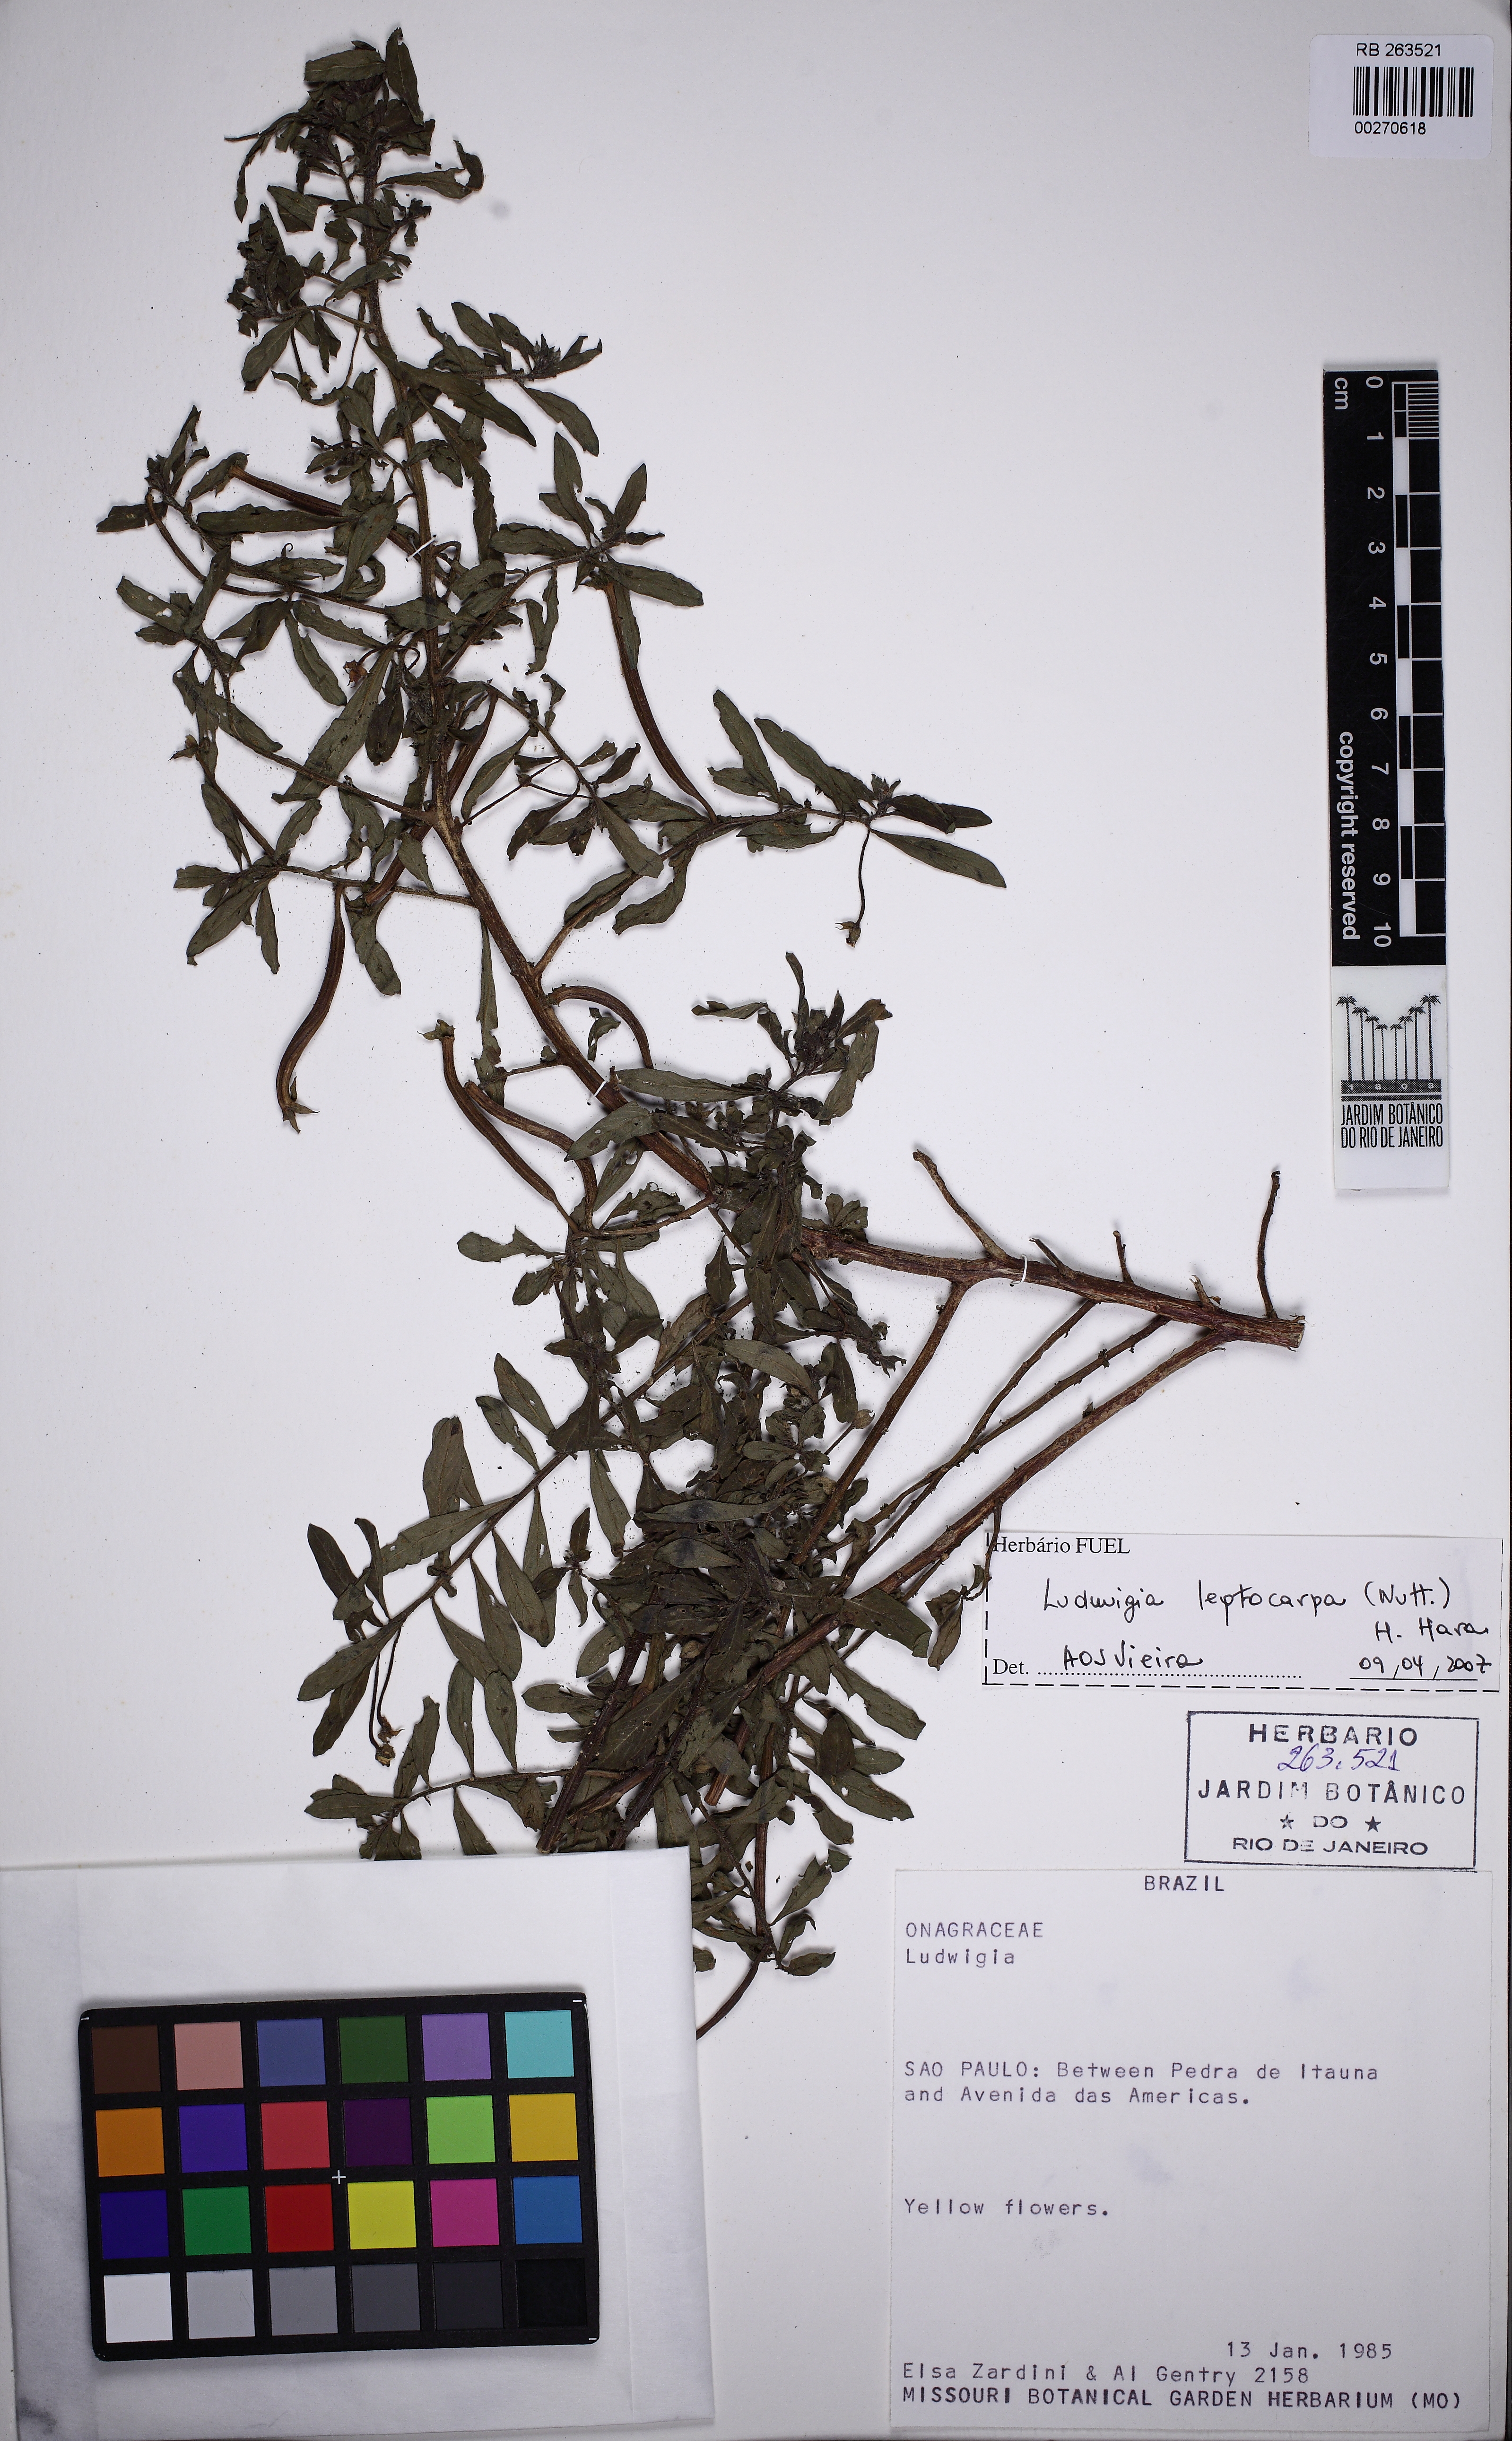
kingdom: Plantae
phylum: Tracheophyta
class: Magnoliopsida
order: Myrtales
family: Onagraceae
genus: Ludwigia
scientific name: Ludwigia leptocarpa
